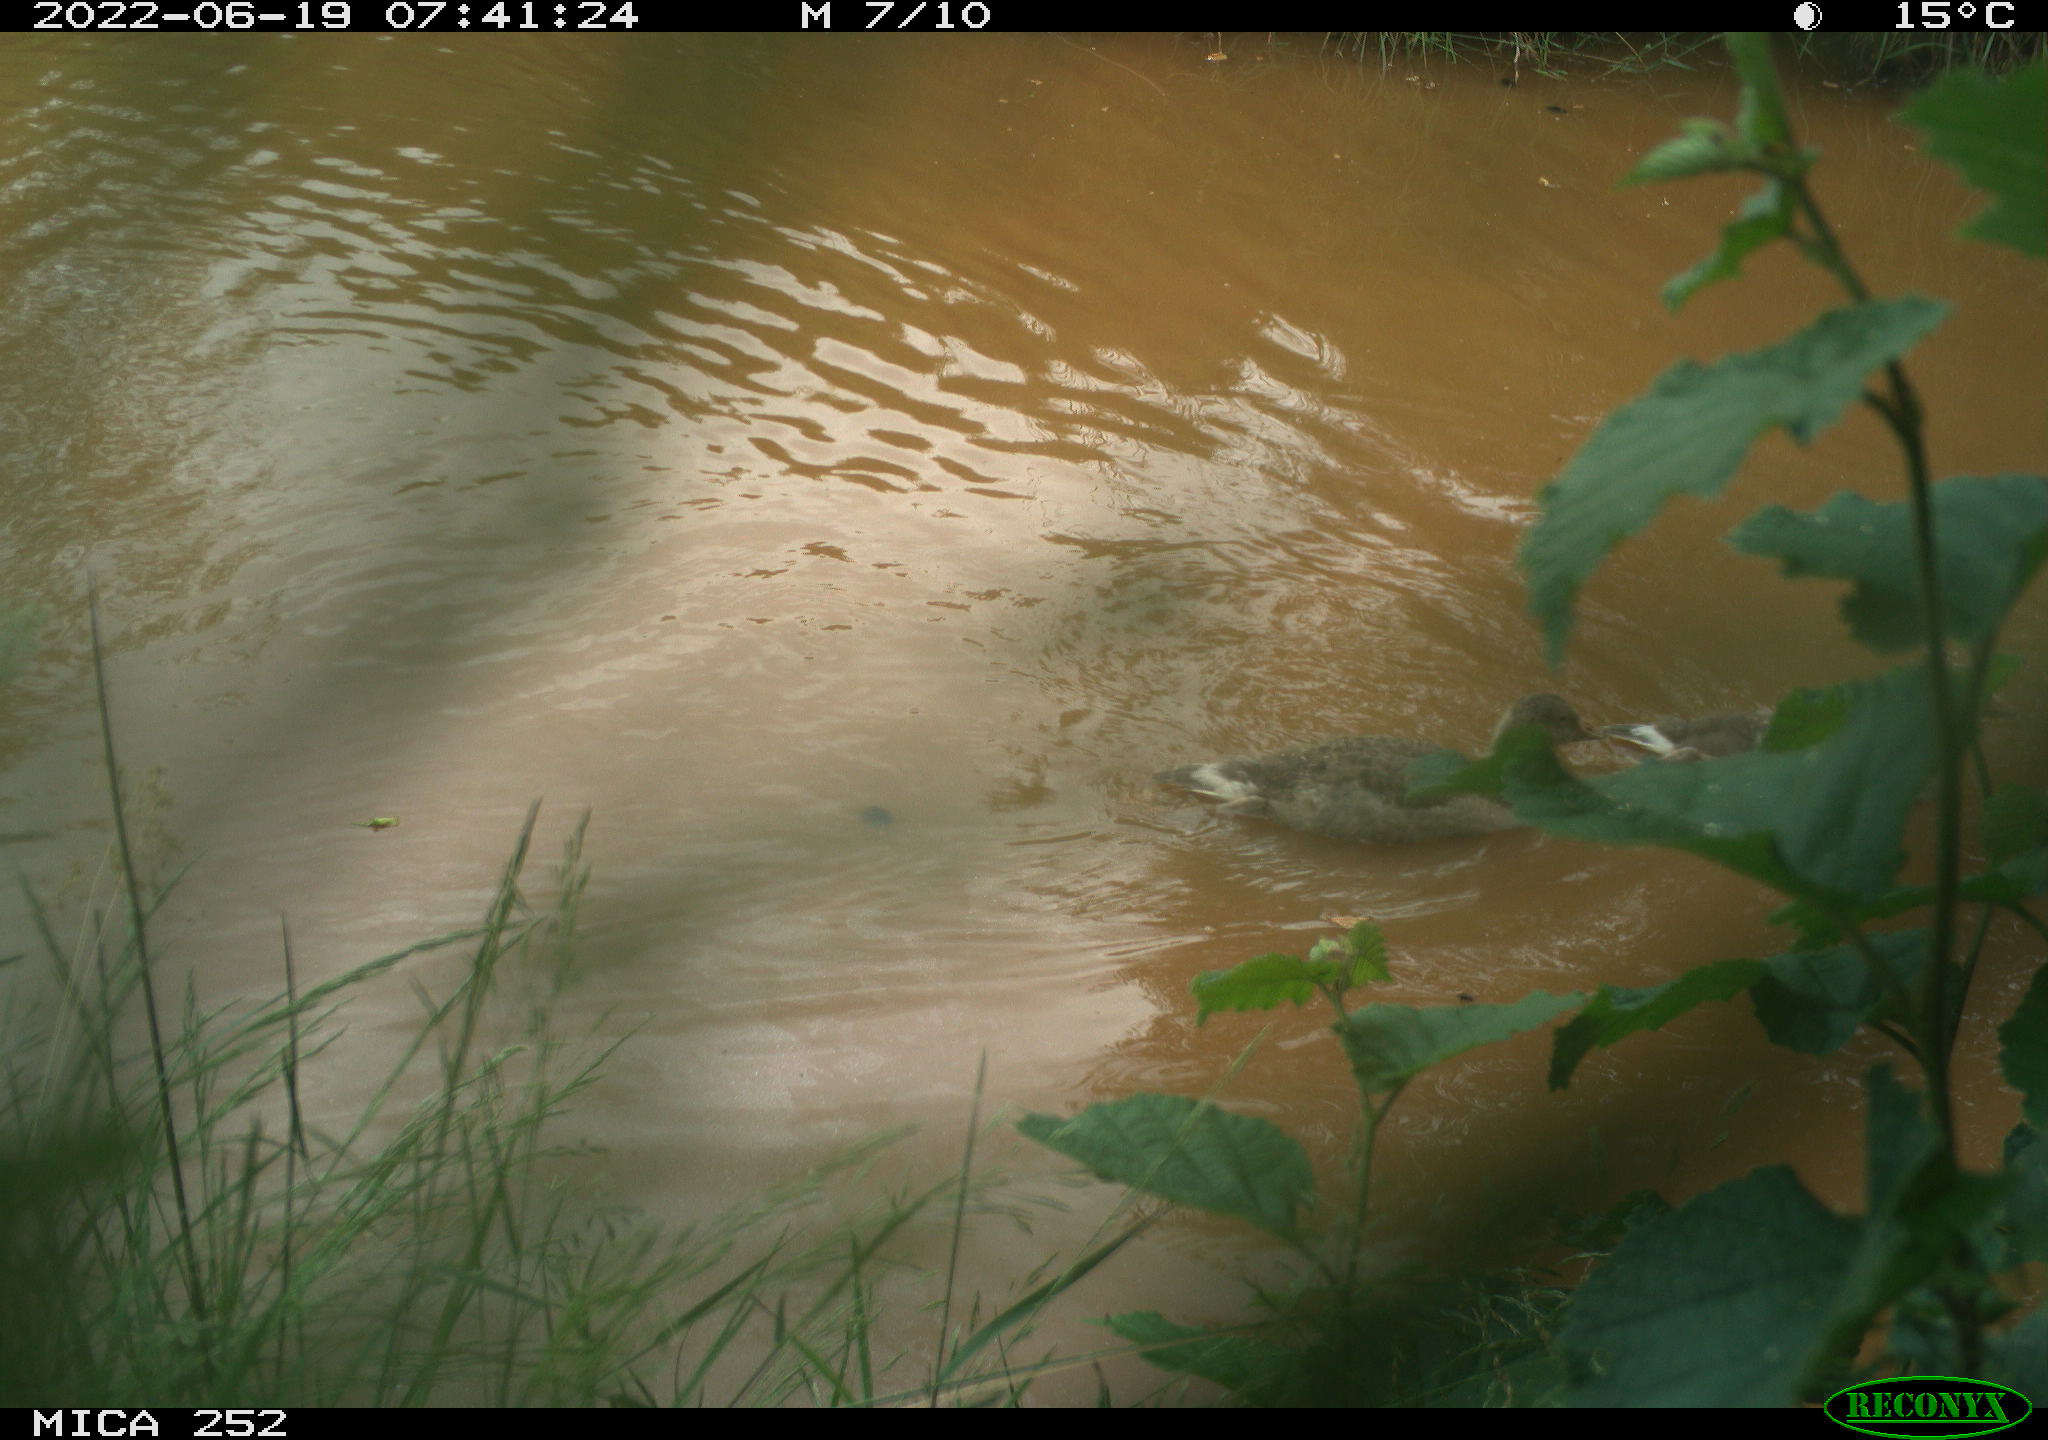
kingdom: Animalia
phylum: Chordata
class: Aves
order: Anseriformes
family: Anatidae
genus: Anser
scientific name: Anser anser
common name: Greylag goose
